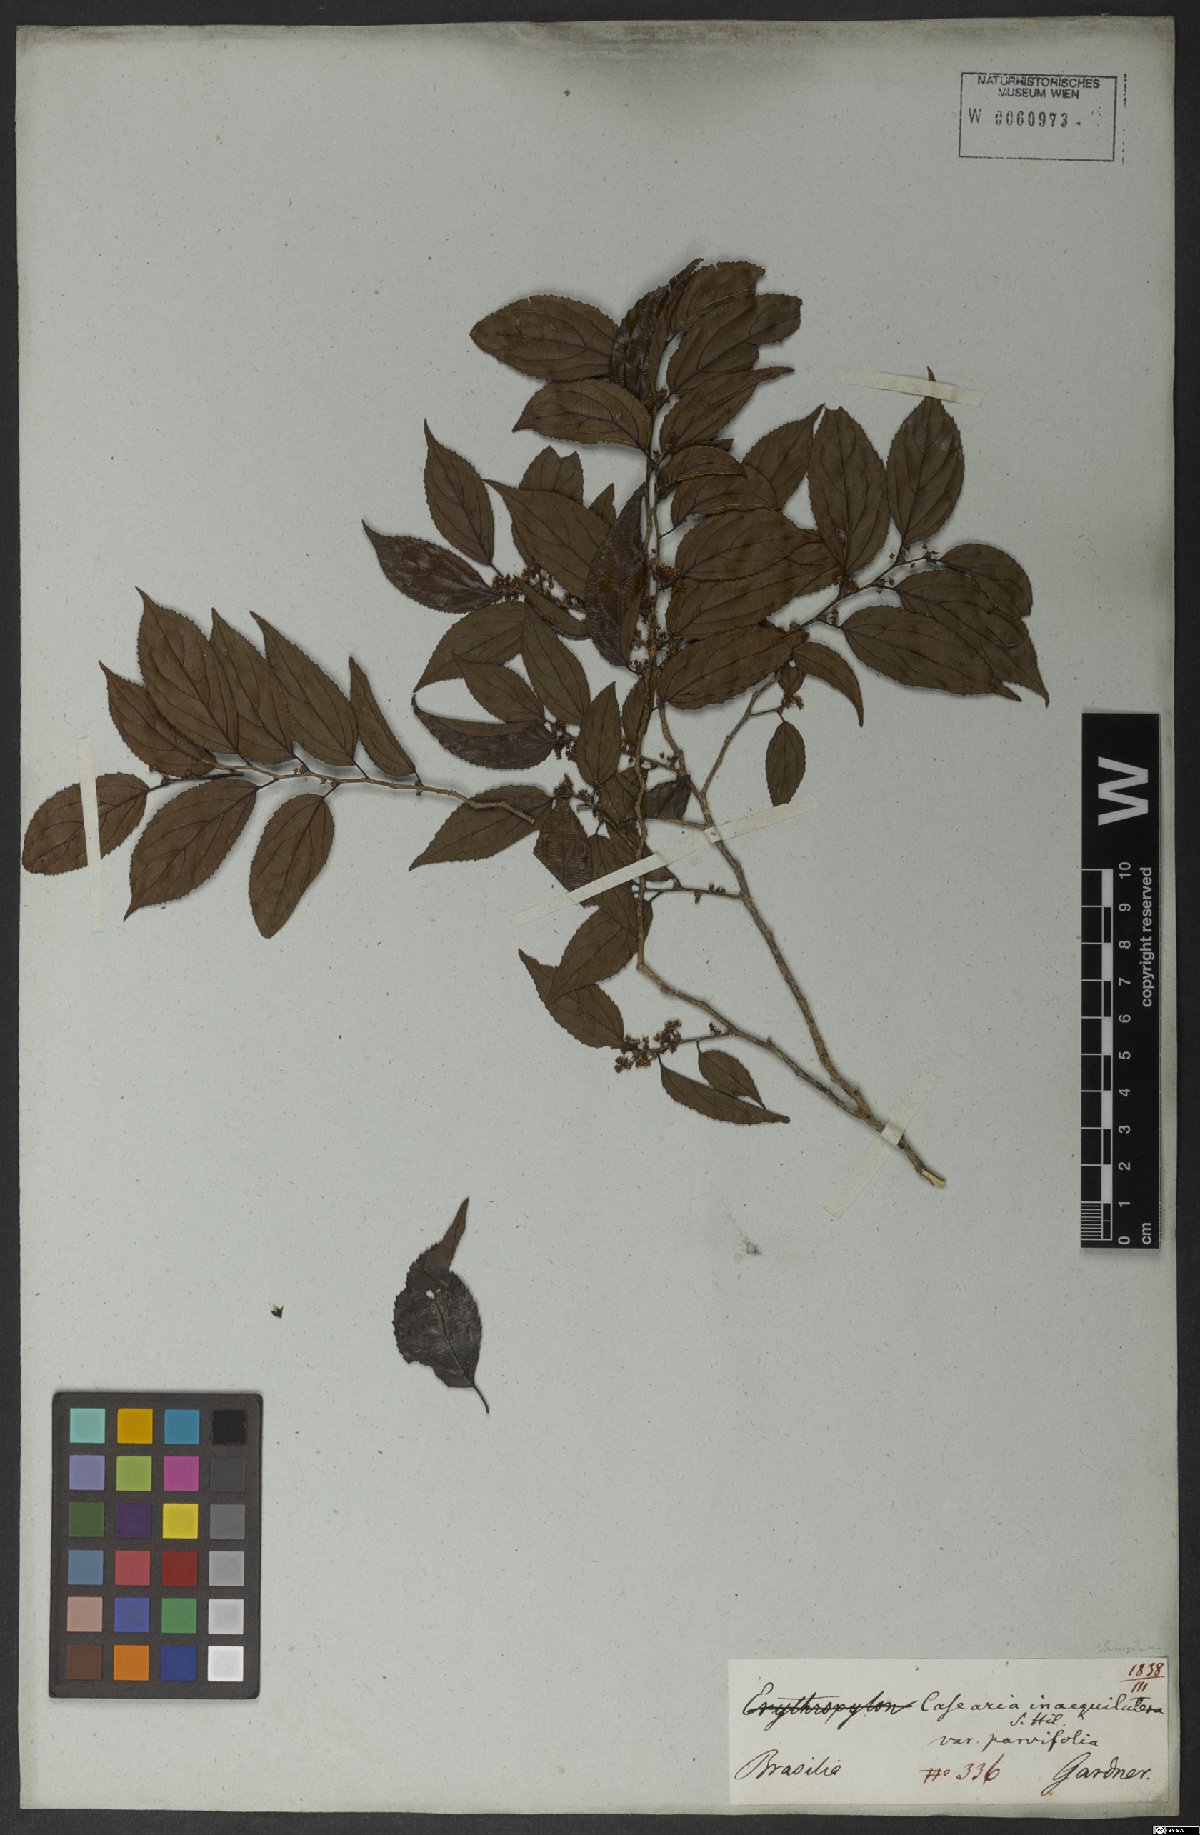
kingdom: Plantae
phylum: Tracheophyta
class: Magnoliopsida
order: Malpighiales
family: Salicaceae
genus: Casearia
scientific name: Casearia obliqua
